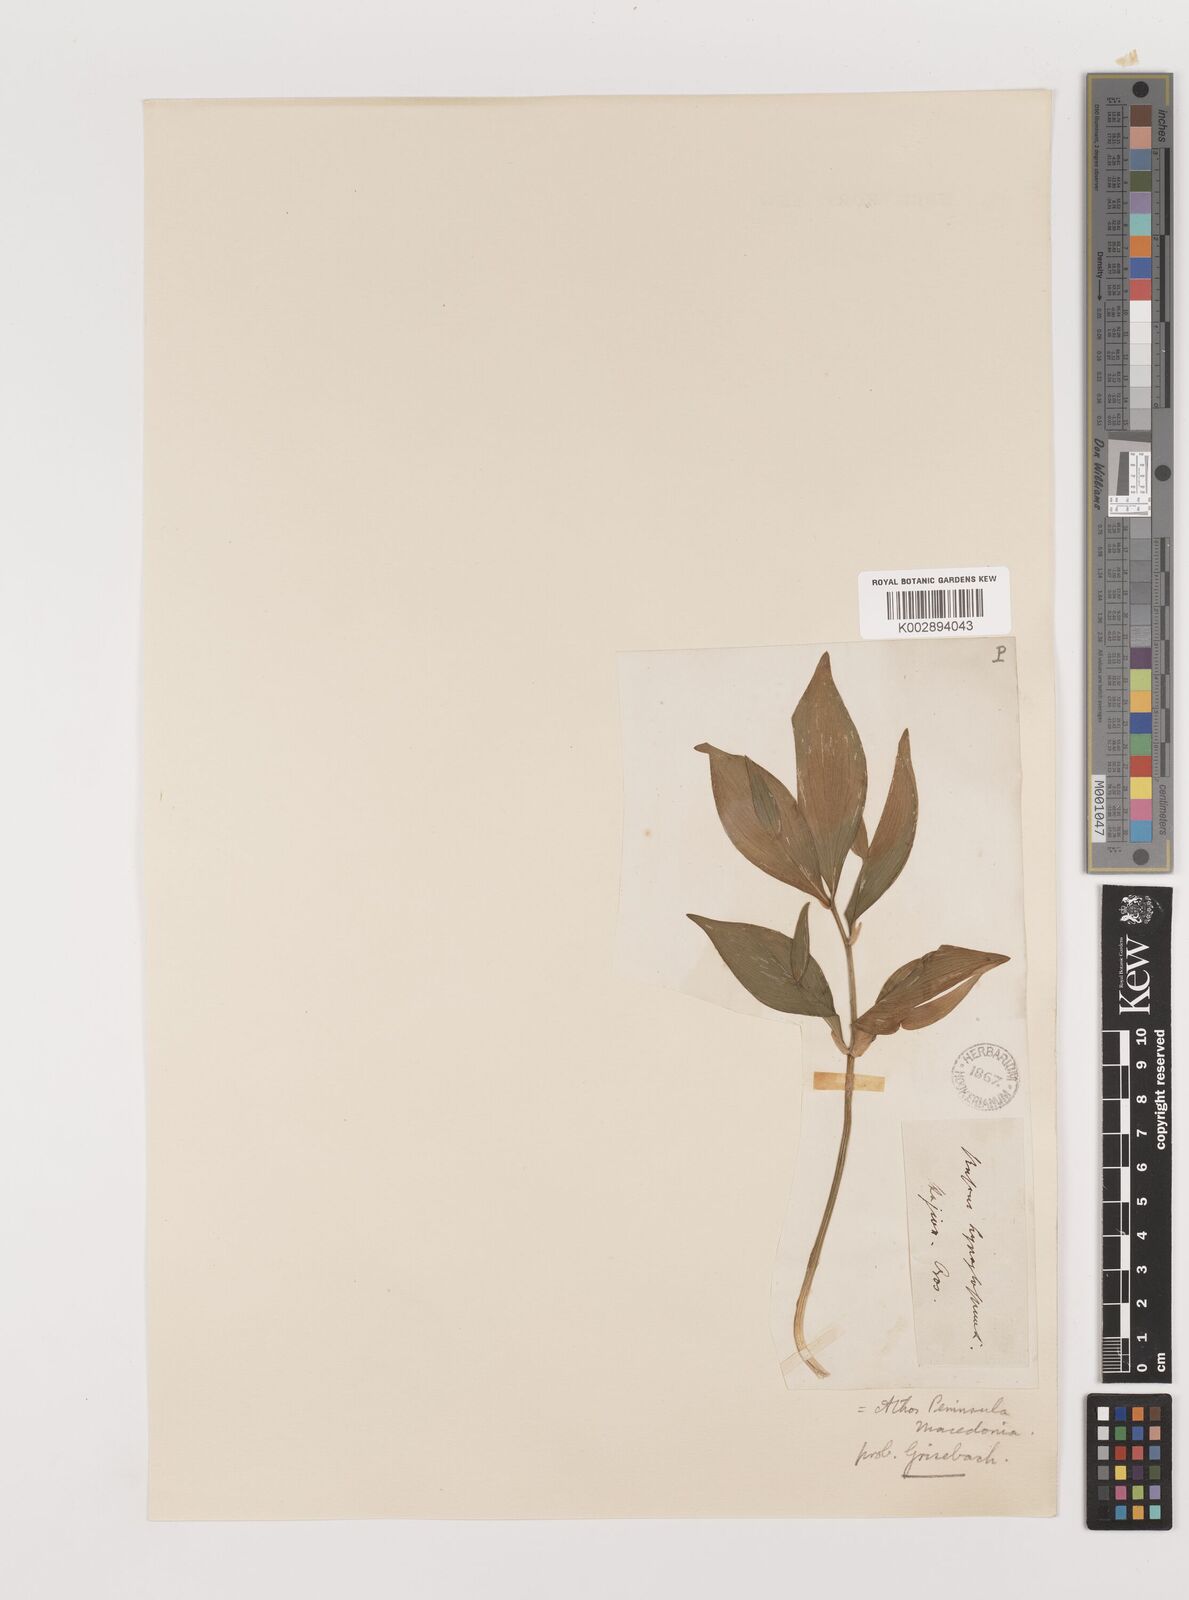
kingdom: Plantae
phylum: Tracheophyta
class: Liliopsida
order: Asparagales
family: Asparagaceae
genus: Ruscus
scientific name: Ruscus hypoglossum
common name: Spineless butcher's-broom
